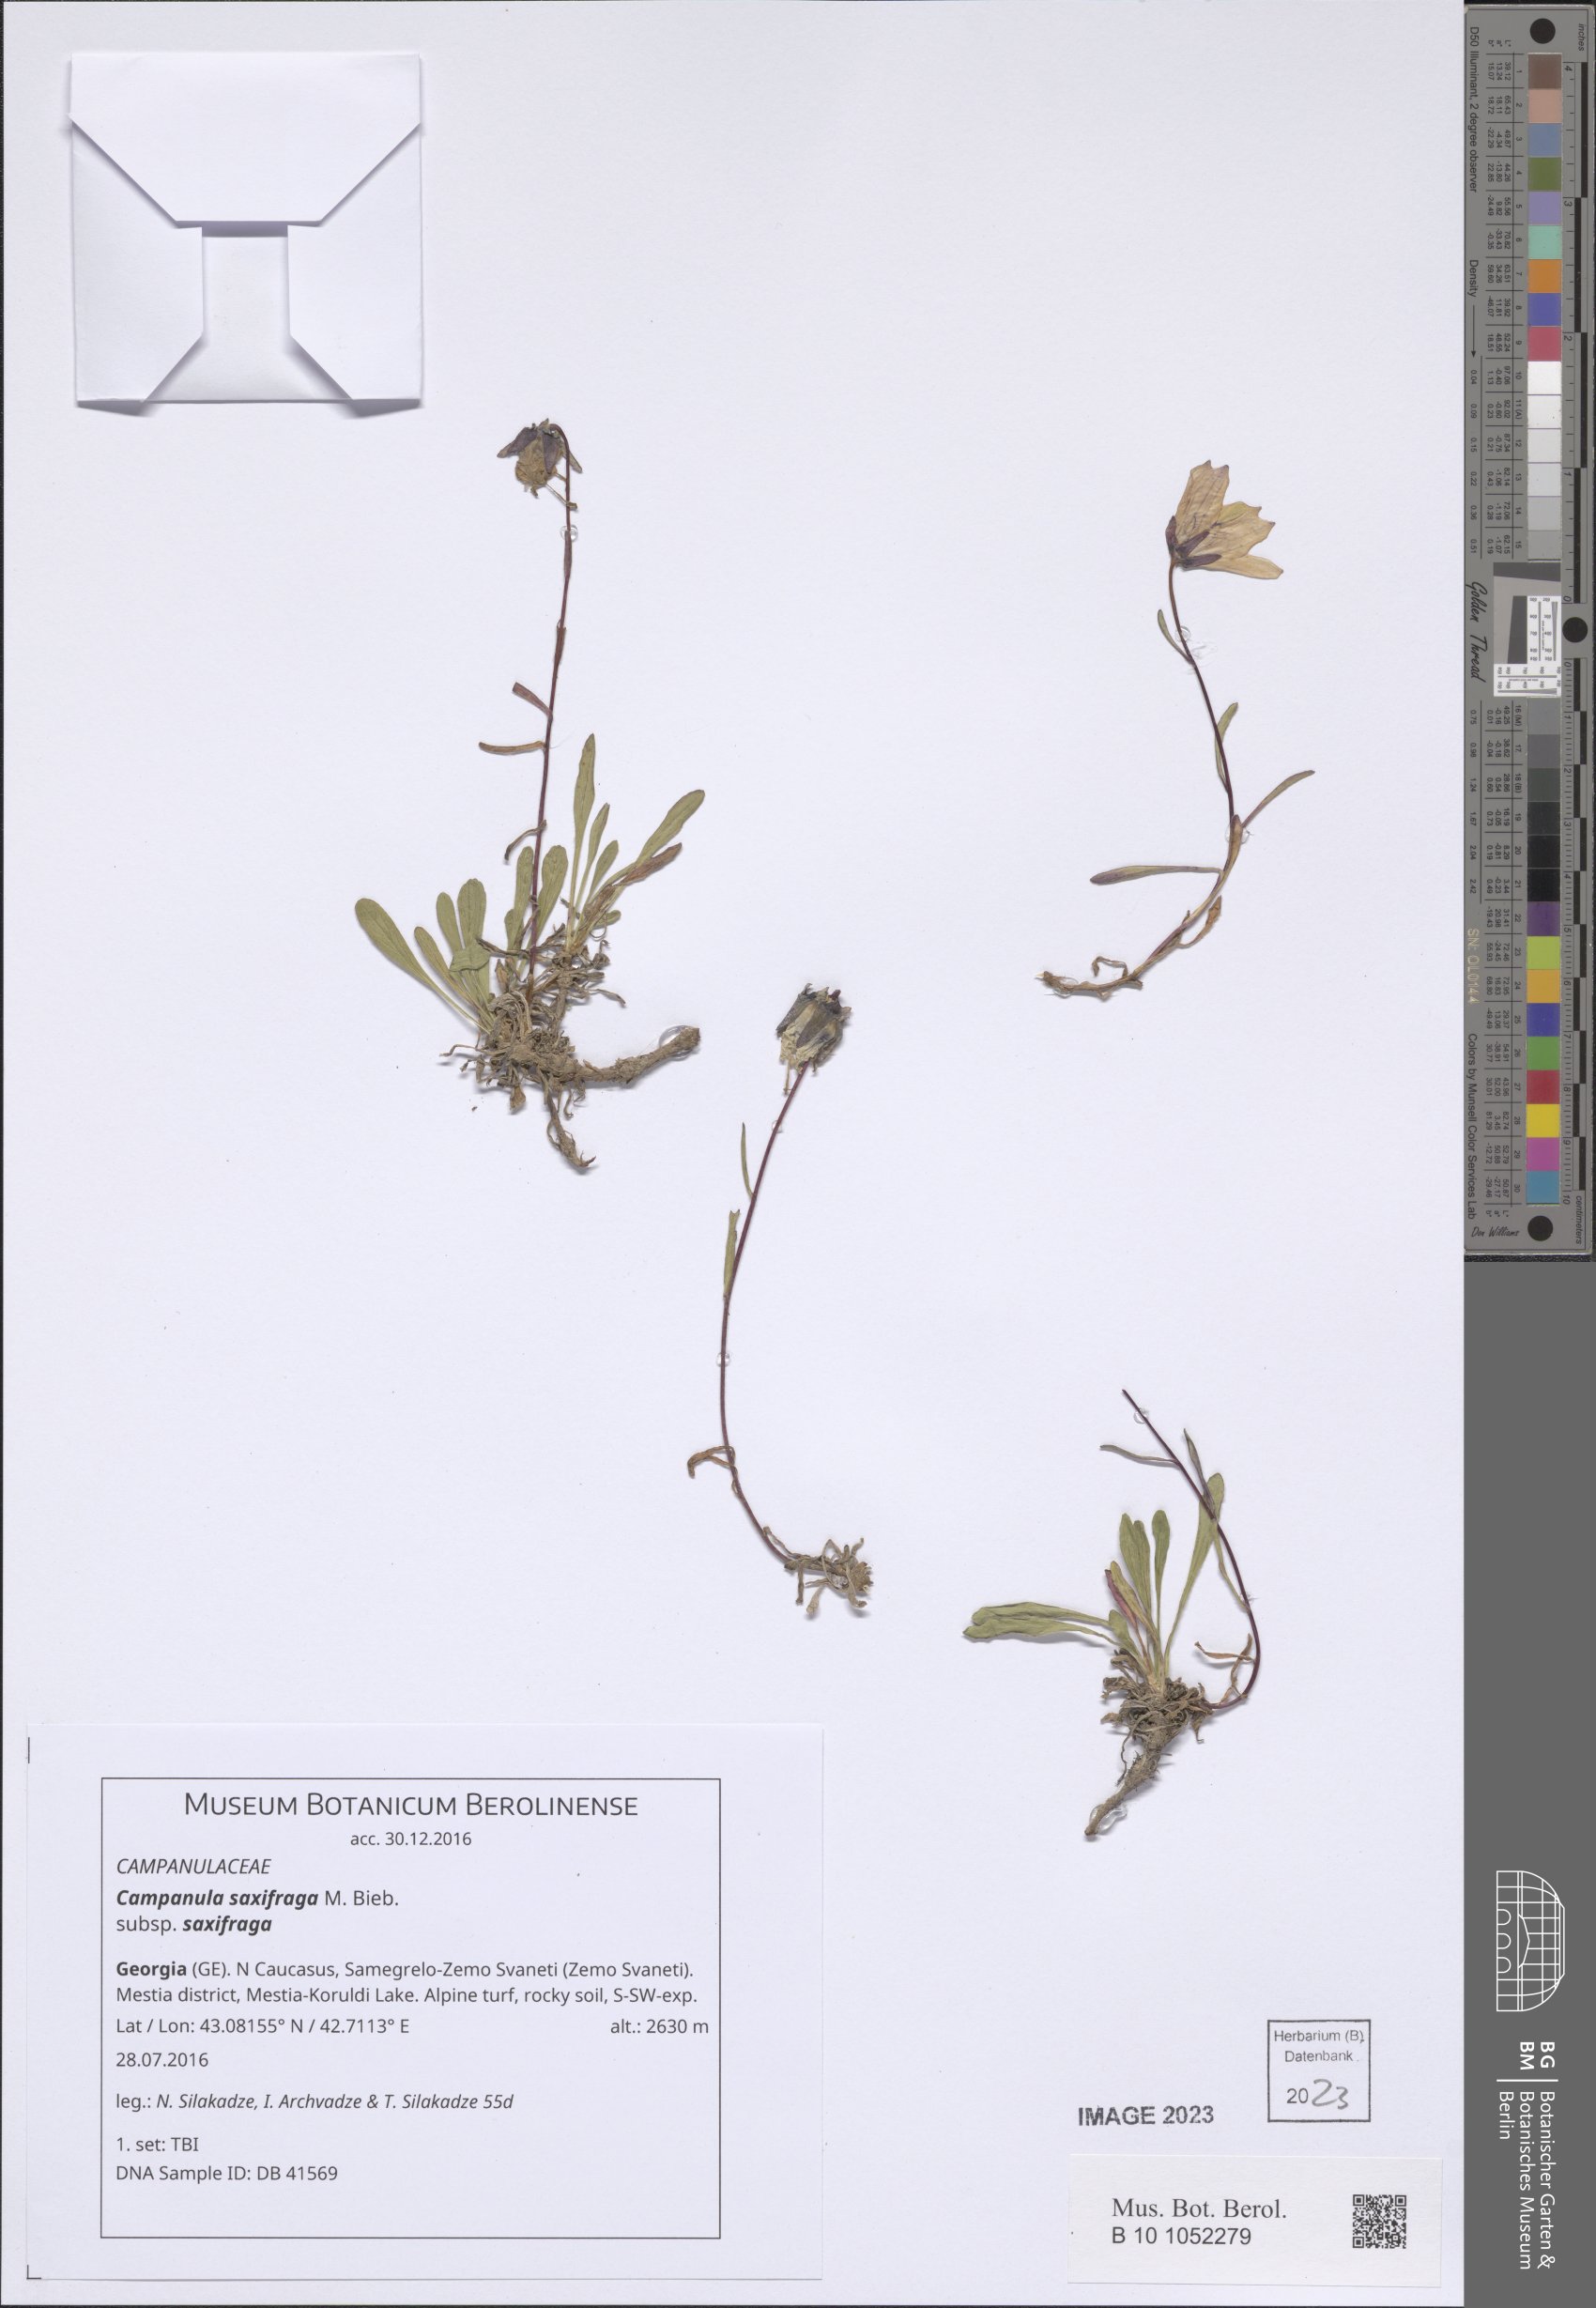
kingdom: Plantae
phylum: Tracheophyta
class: Magnoliopsida
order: Asterales
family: Campanulaceae
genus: Campanula
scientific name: Campanula saxifraga
